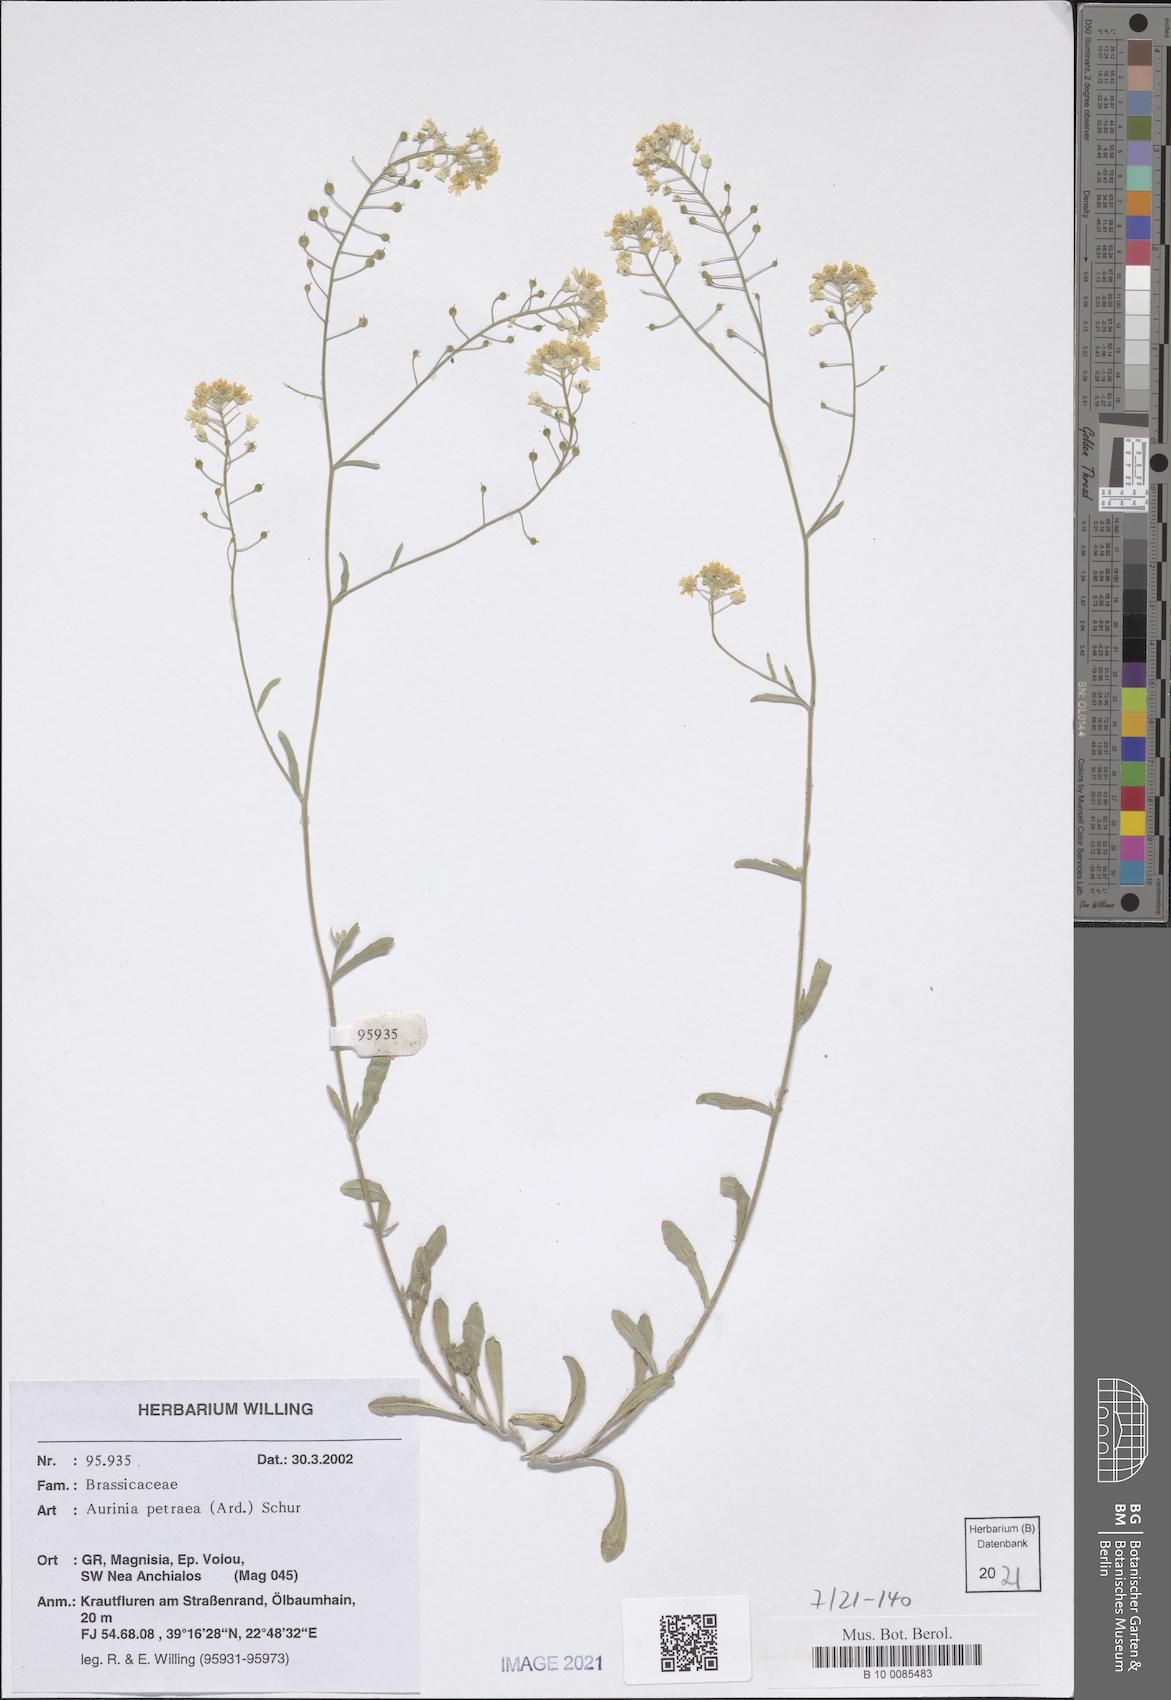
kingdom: Plantae
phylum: Tracheophyta
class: Magnoliopsida
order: Brassicales
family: Brassicaceae
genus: Aurinia
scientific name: Aurinia petraea
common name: Goldentuft
